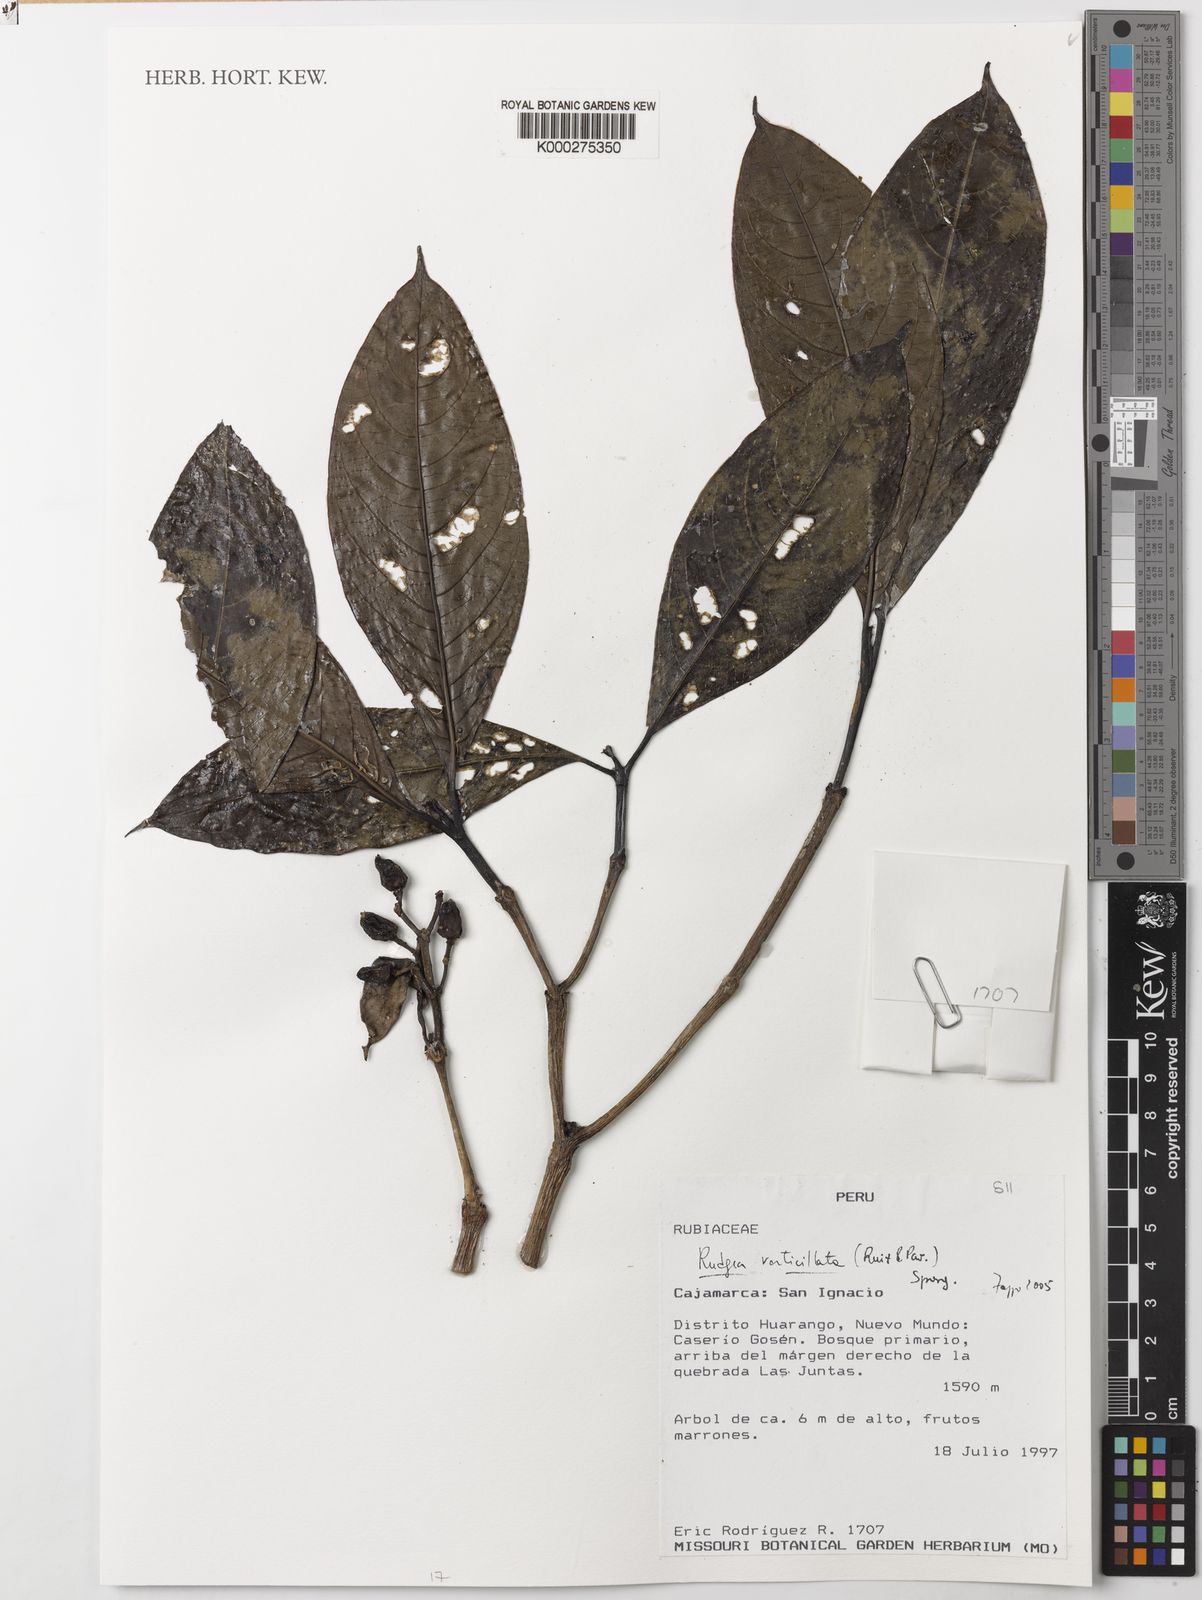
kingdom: Plantae
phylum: Tracheophyta
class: Magnoliopsida
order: Gentianales
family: Rubiaceae
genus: Rudgea
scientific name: Rudgea verticillata
